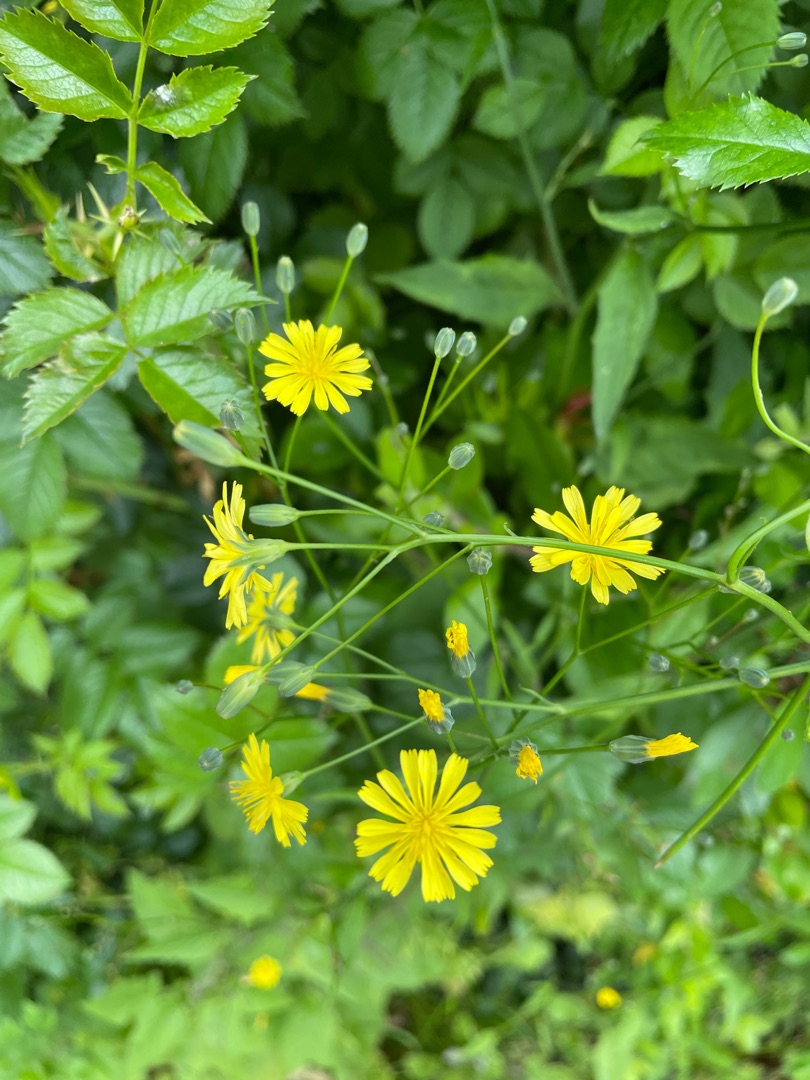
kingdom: Plantae
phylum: Tracheophyta
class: Magnoliopsida
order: Asterales
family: Asteraceae
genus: Lapsana
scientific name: Lapsana communis
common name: Haremad
